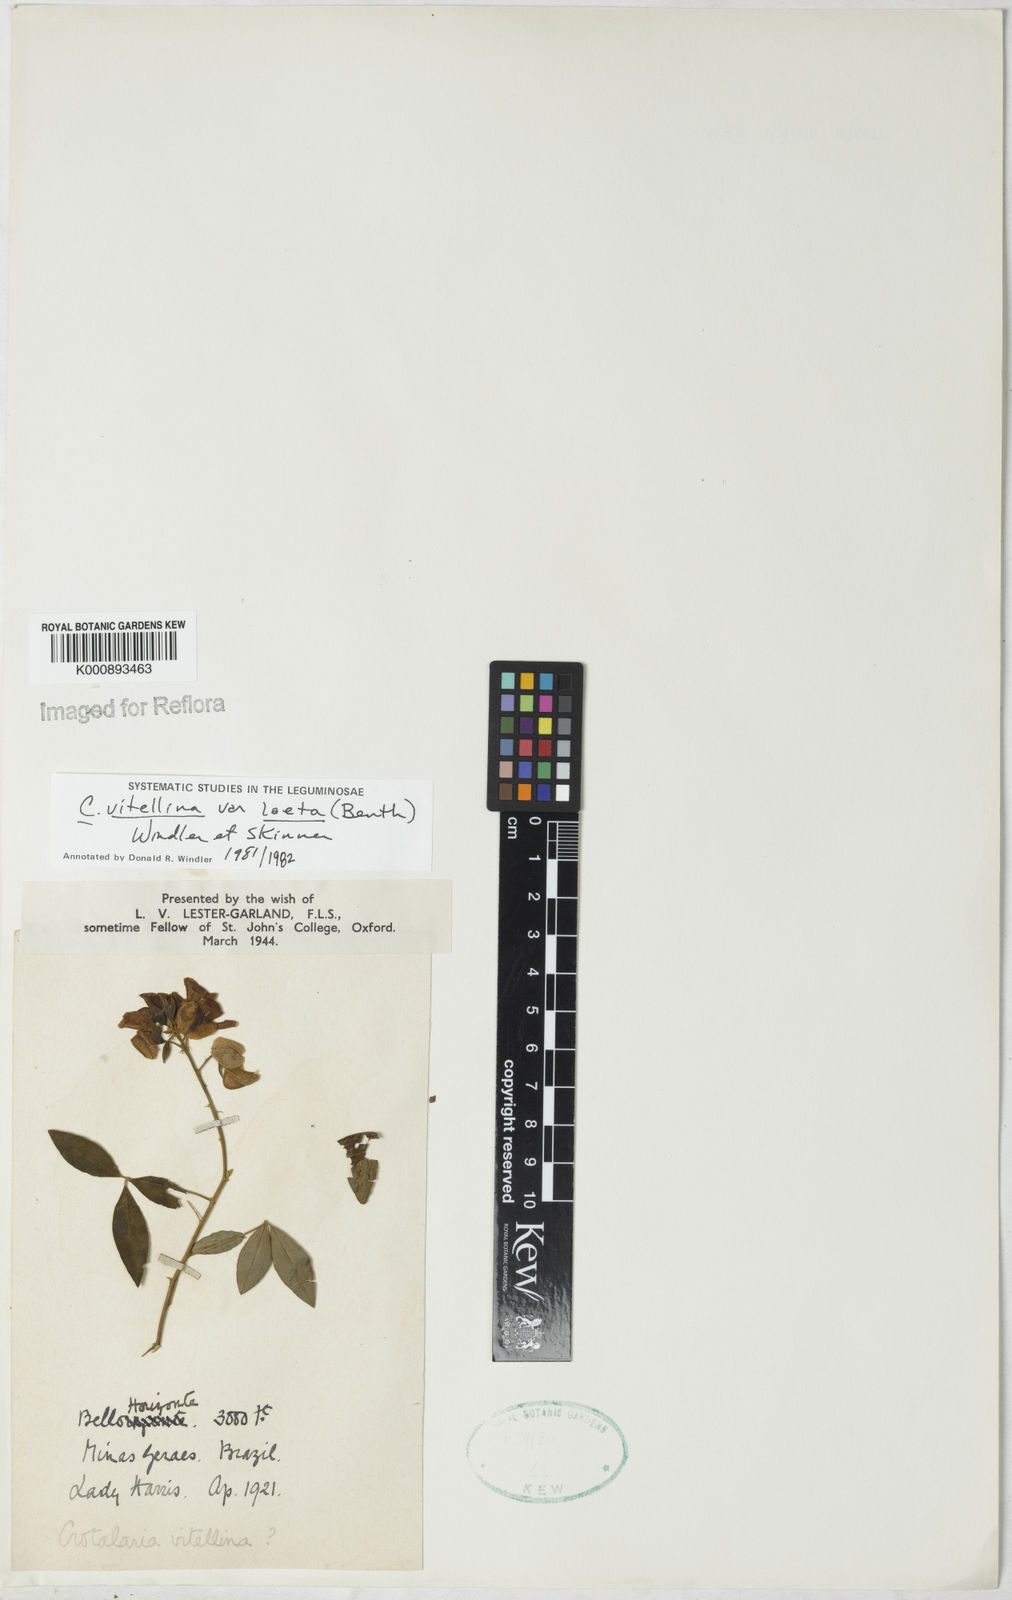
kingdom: Plantae
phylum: Tracheophyta
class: Magnoliopsida
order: Fabales
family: Fabaceae
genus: Crotalaria
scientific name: Crotalaria laeta
